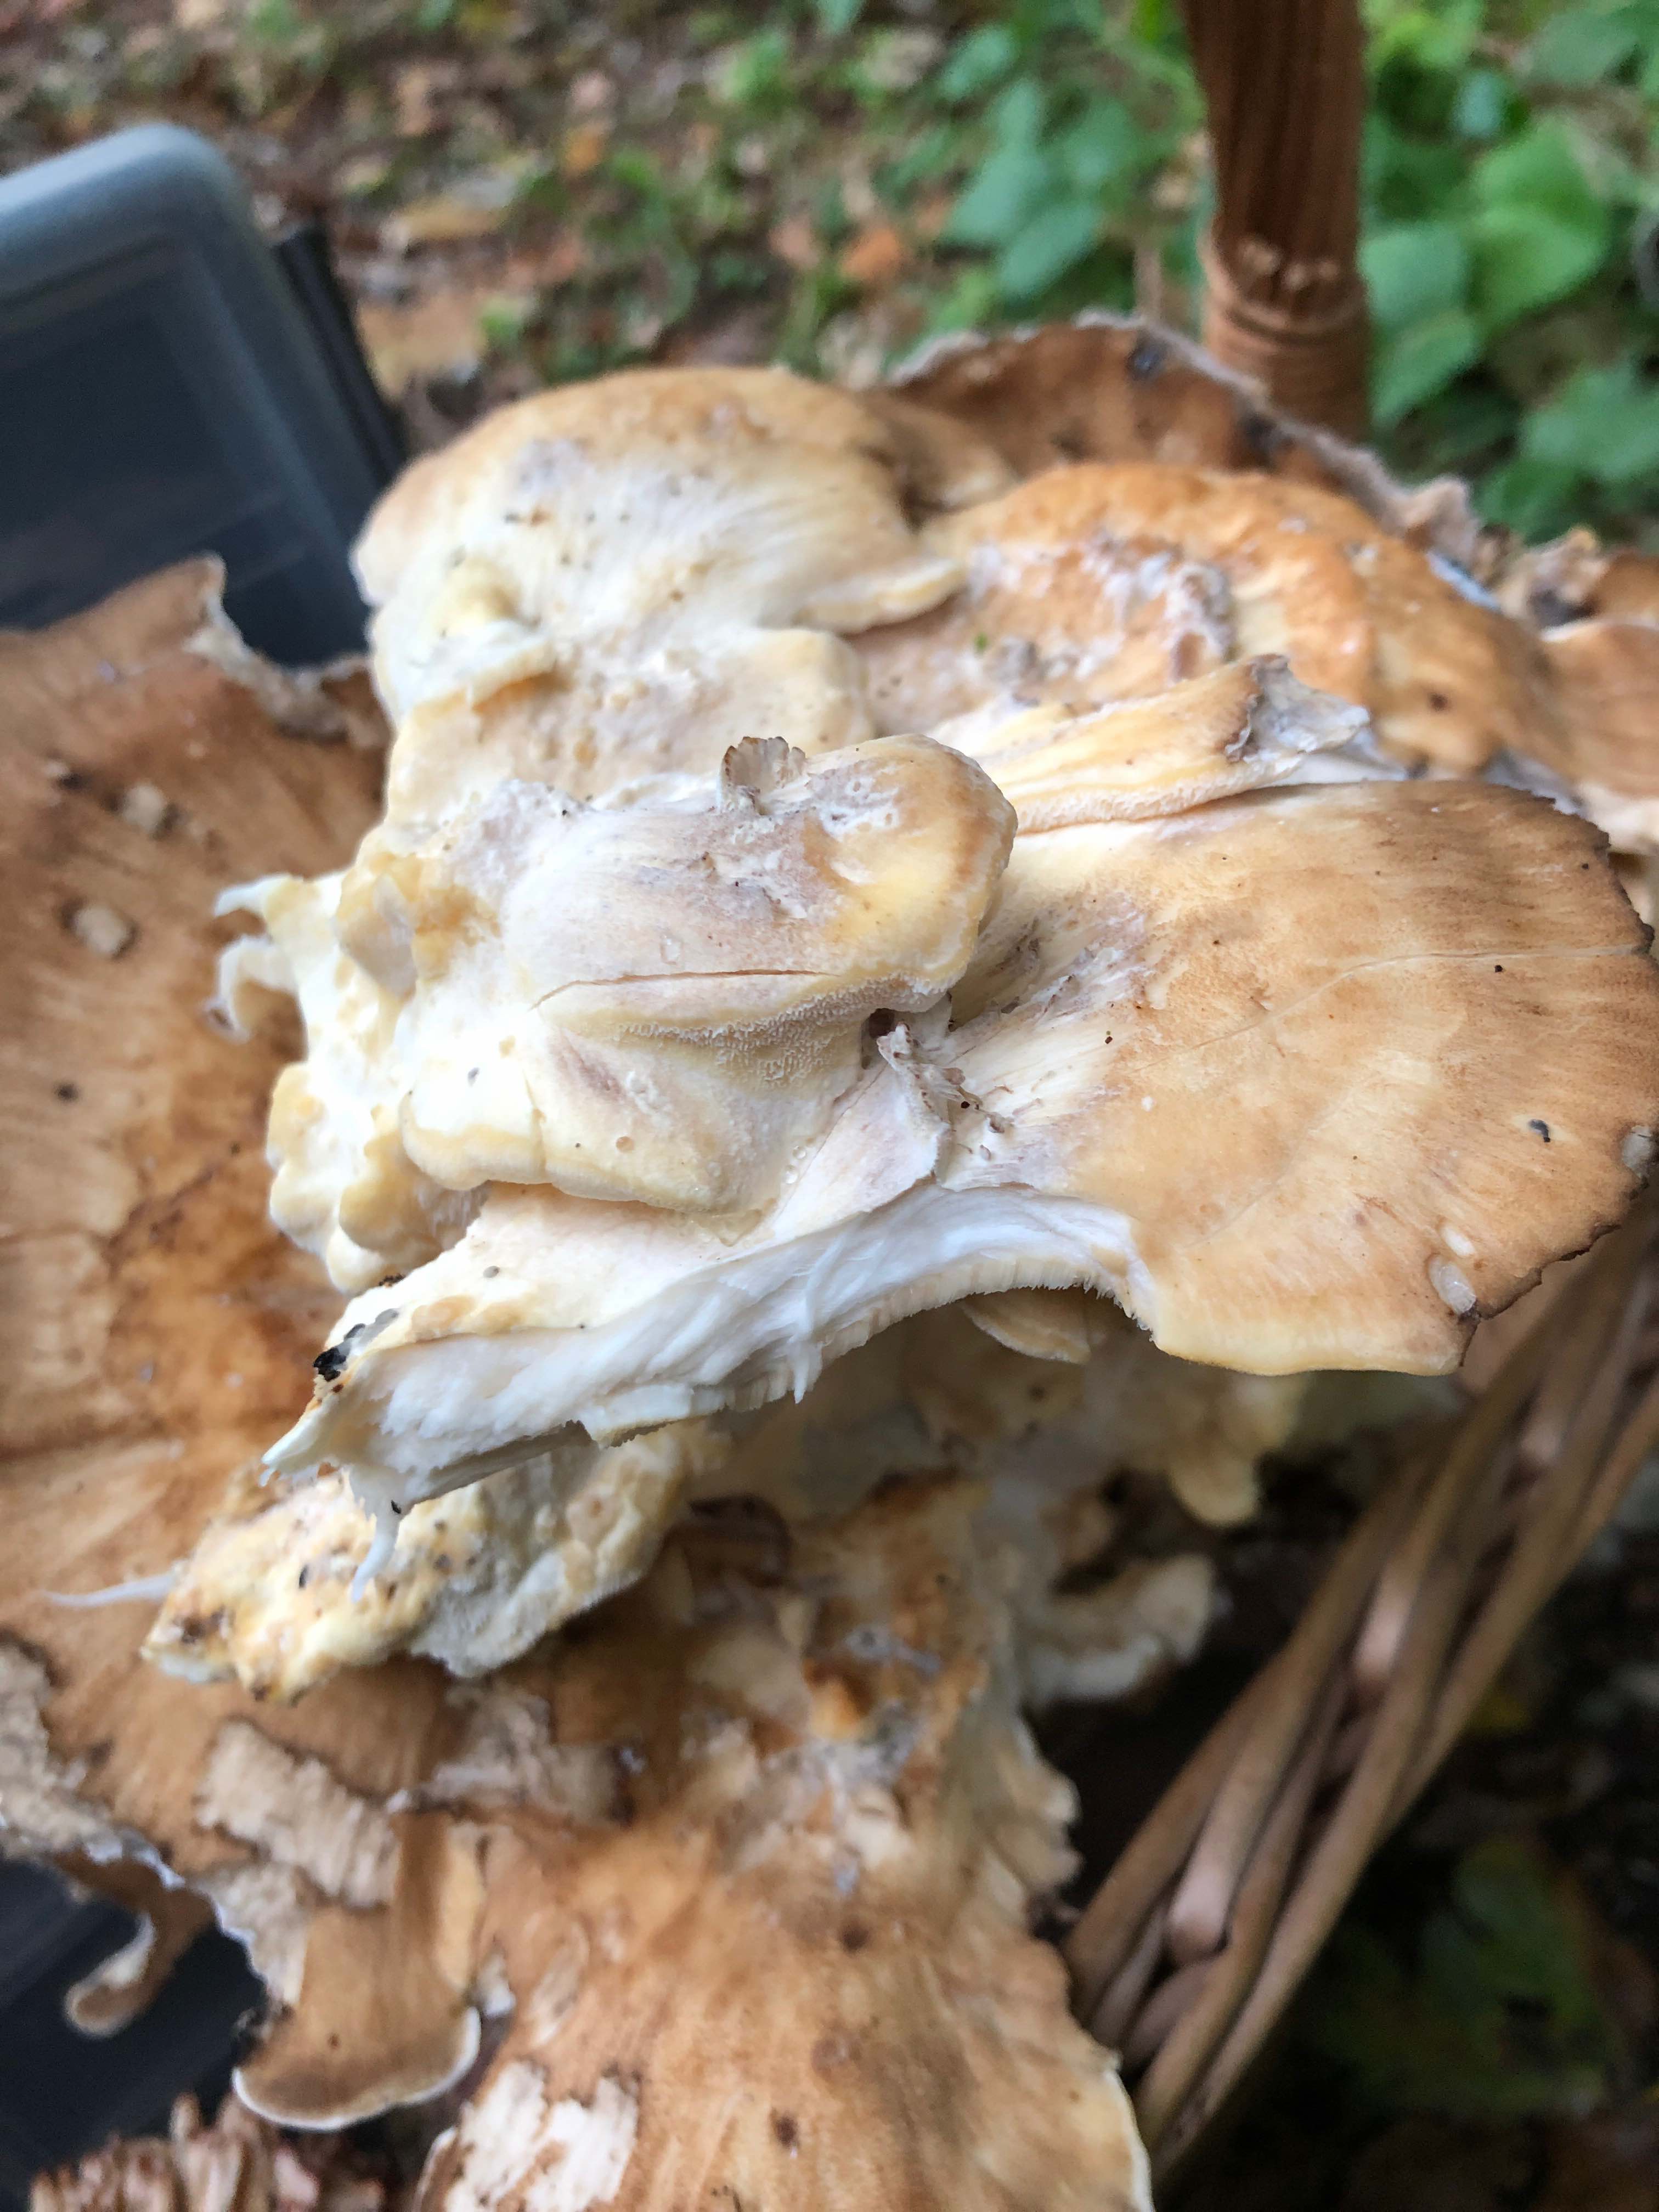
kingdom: Fungi
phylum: Basidiomycota
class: Agaricomycetes
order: Polyporales
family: Meripilaceae
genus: Meripilus
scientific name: Meripilus giganteus
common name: kæmpeporesvamp
